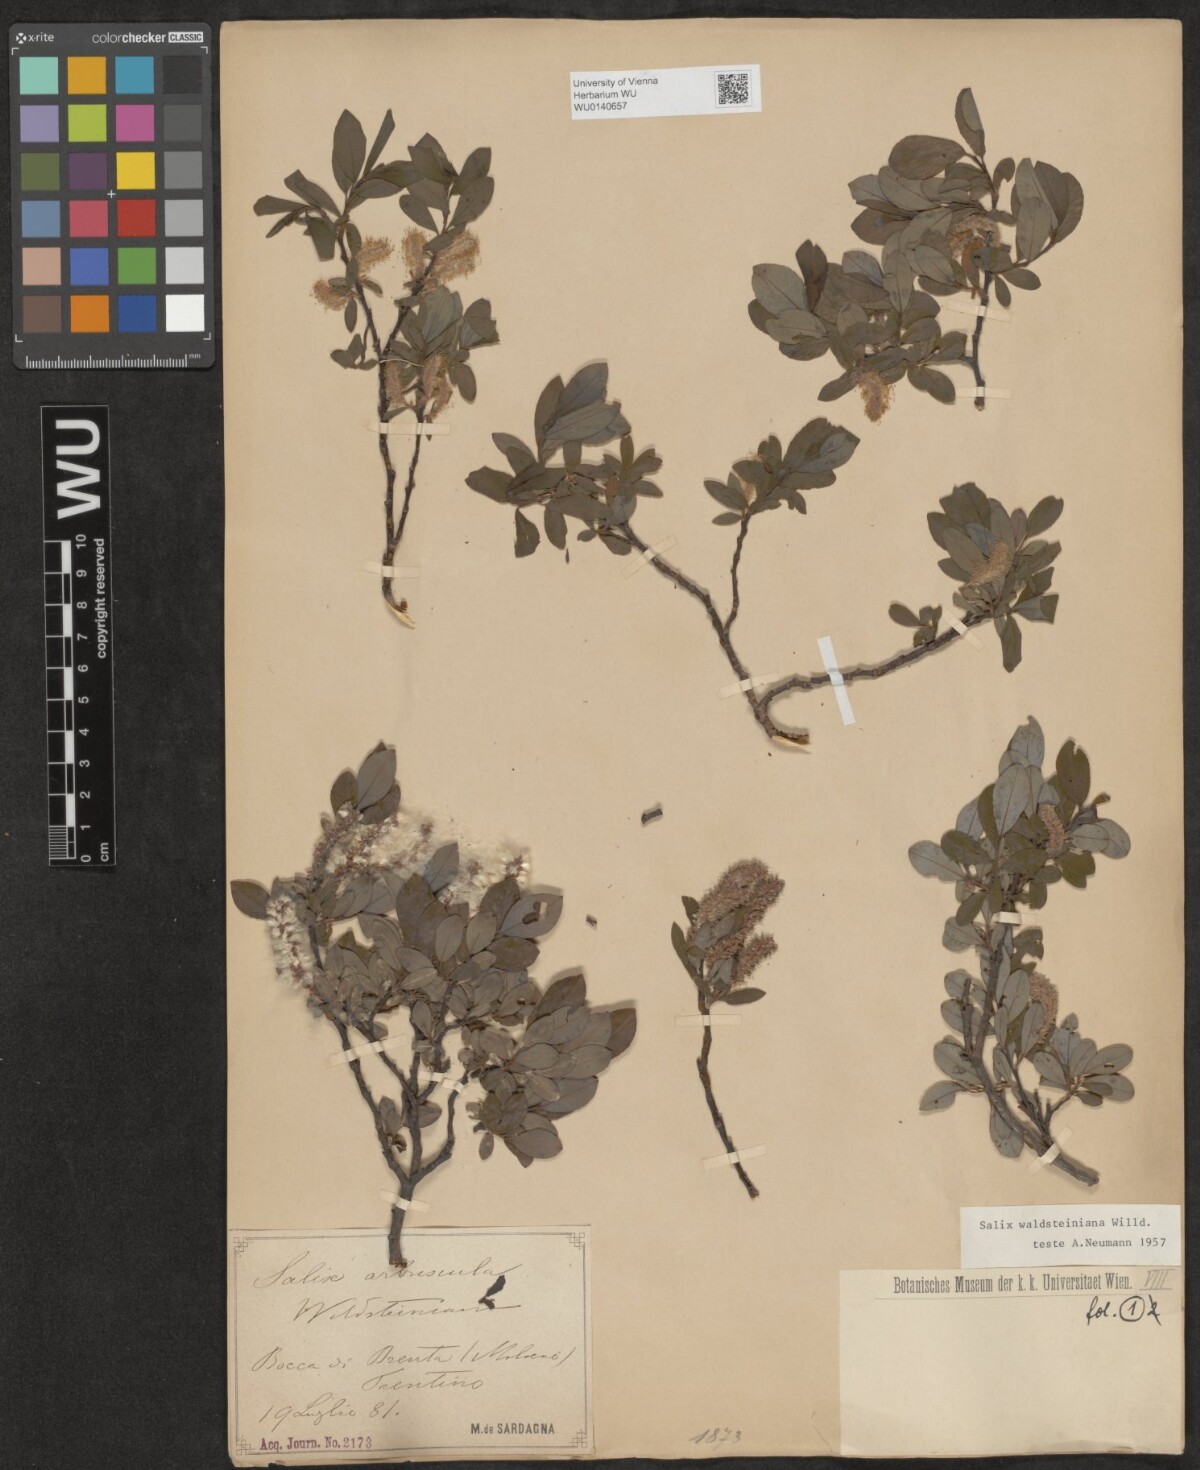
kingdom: Plantae
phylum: Tracheophyta
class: Magnoliopsida
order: Malpighiales
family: Salicaceae
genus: Salix
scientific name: Salix waldsteiniana
